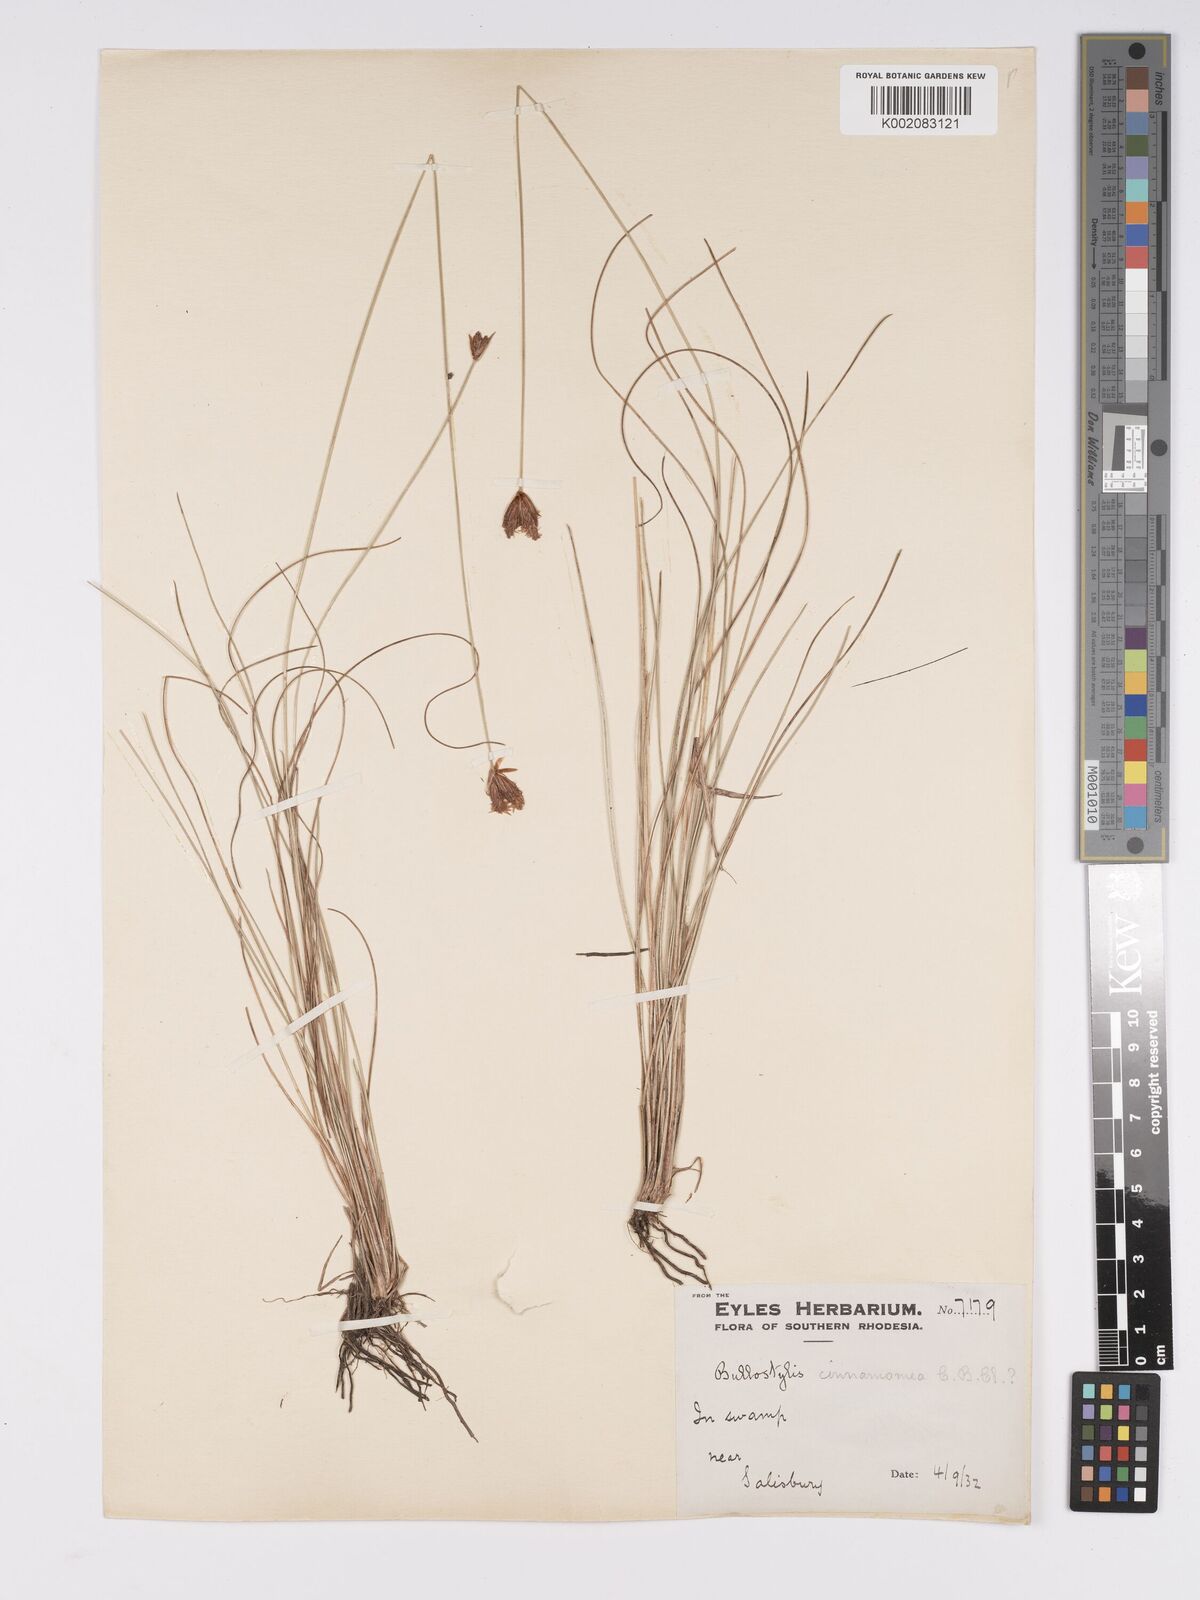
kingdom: Plantae
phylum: Tracheophyta
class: Liliopsida
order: Poales
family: Cyperaceae
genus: Bulbostylis
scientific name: Bulbostylis schoenoides
